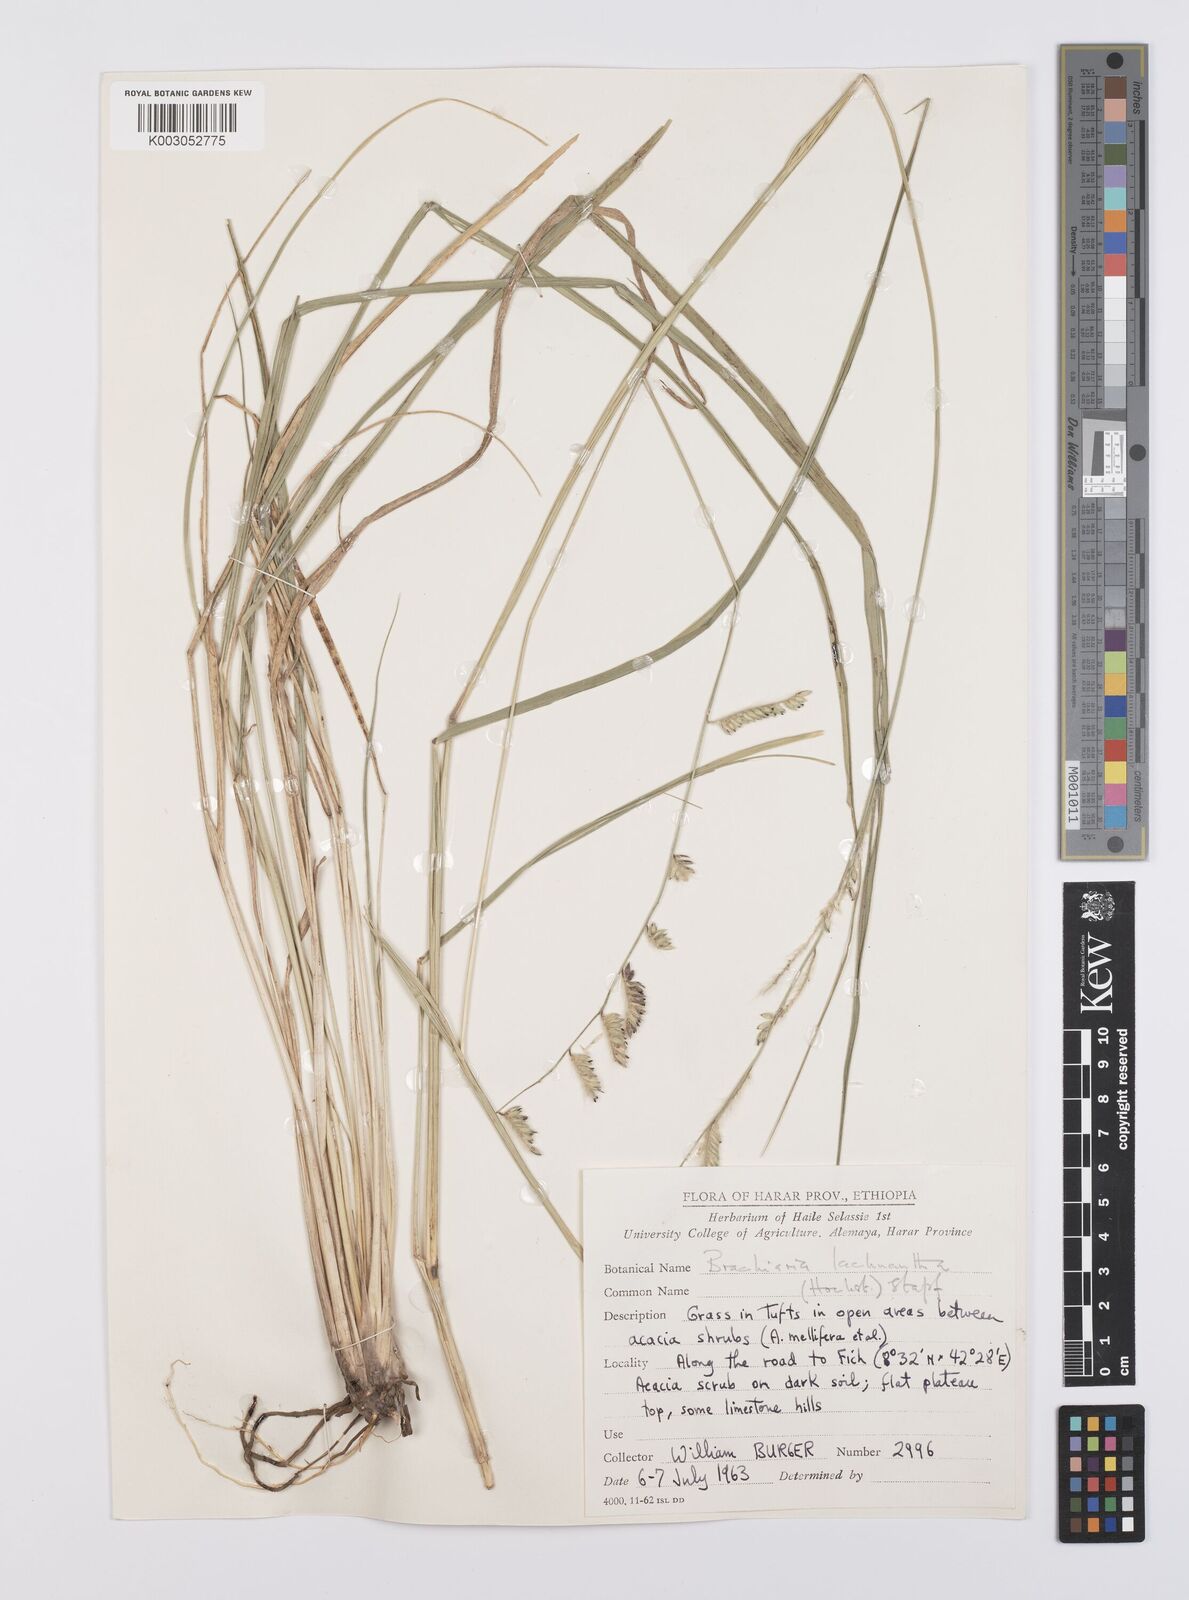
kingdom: Plantae
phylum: Tracheophyta
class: Liliopsida
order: Poales
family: Poaceae
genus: Urochloa
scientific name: Urochloa lachnantha
